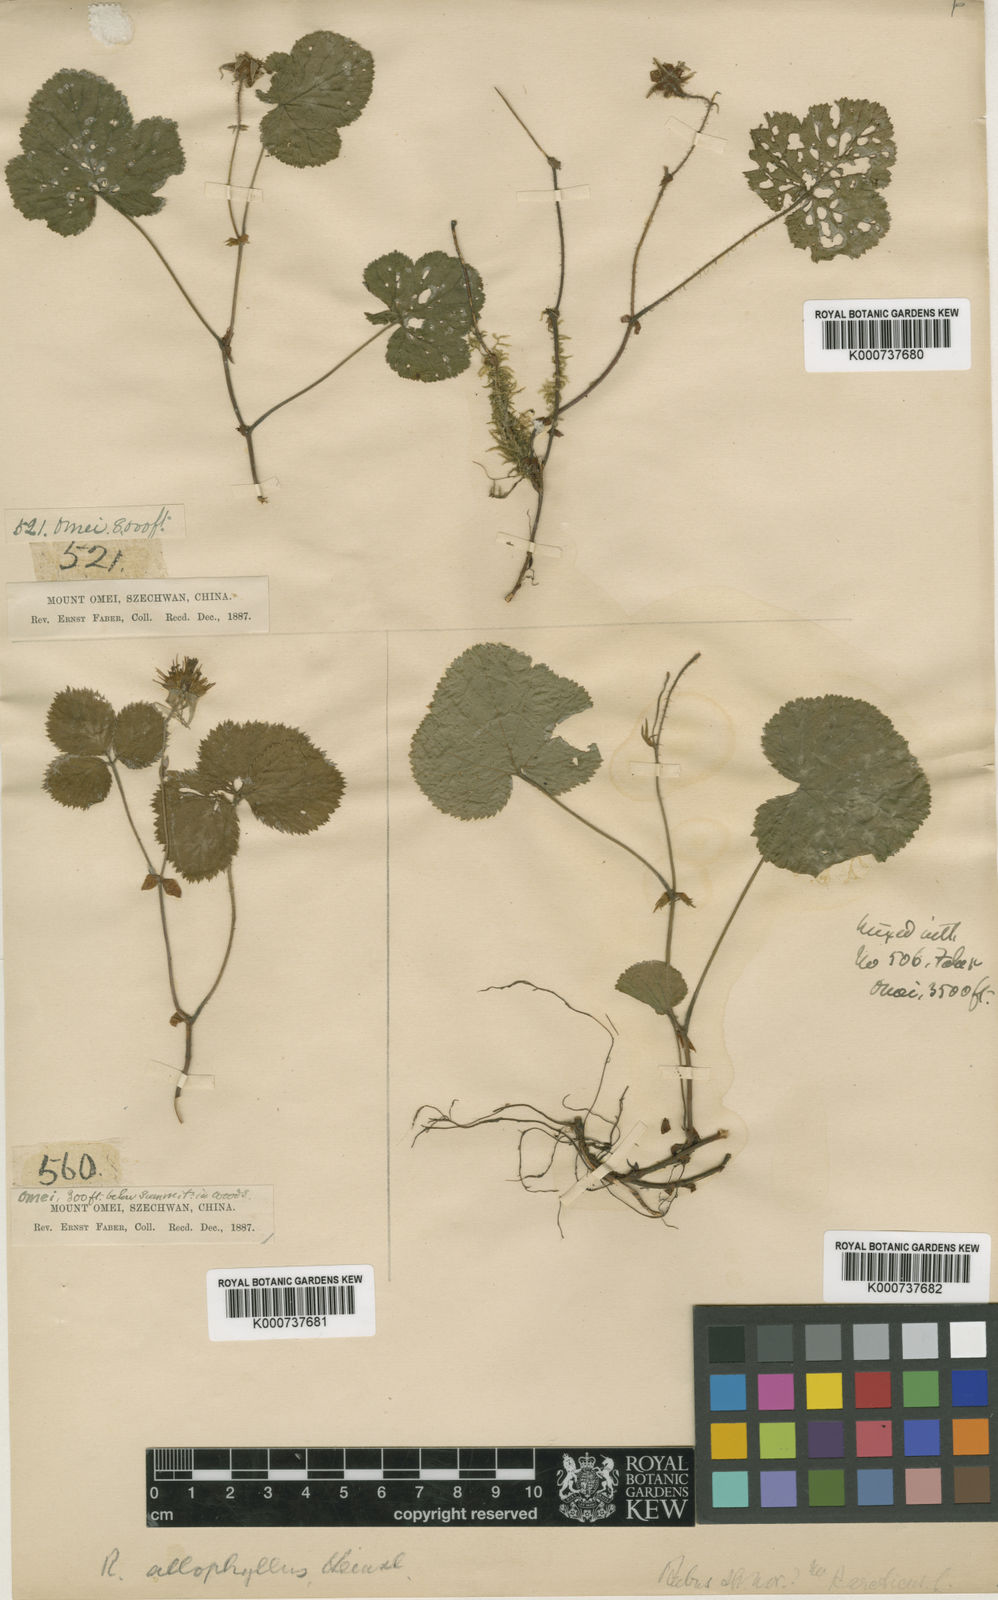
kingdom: Plantae
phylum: Tracheophyta
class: Magnoliopsida
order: Rosales
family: Rosaceae
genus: Rubus
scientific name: Rubus fockeanus
